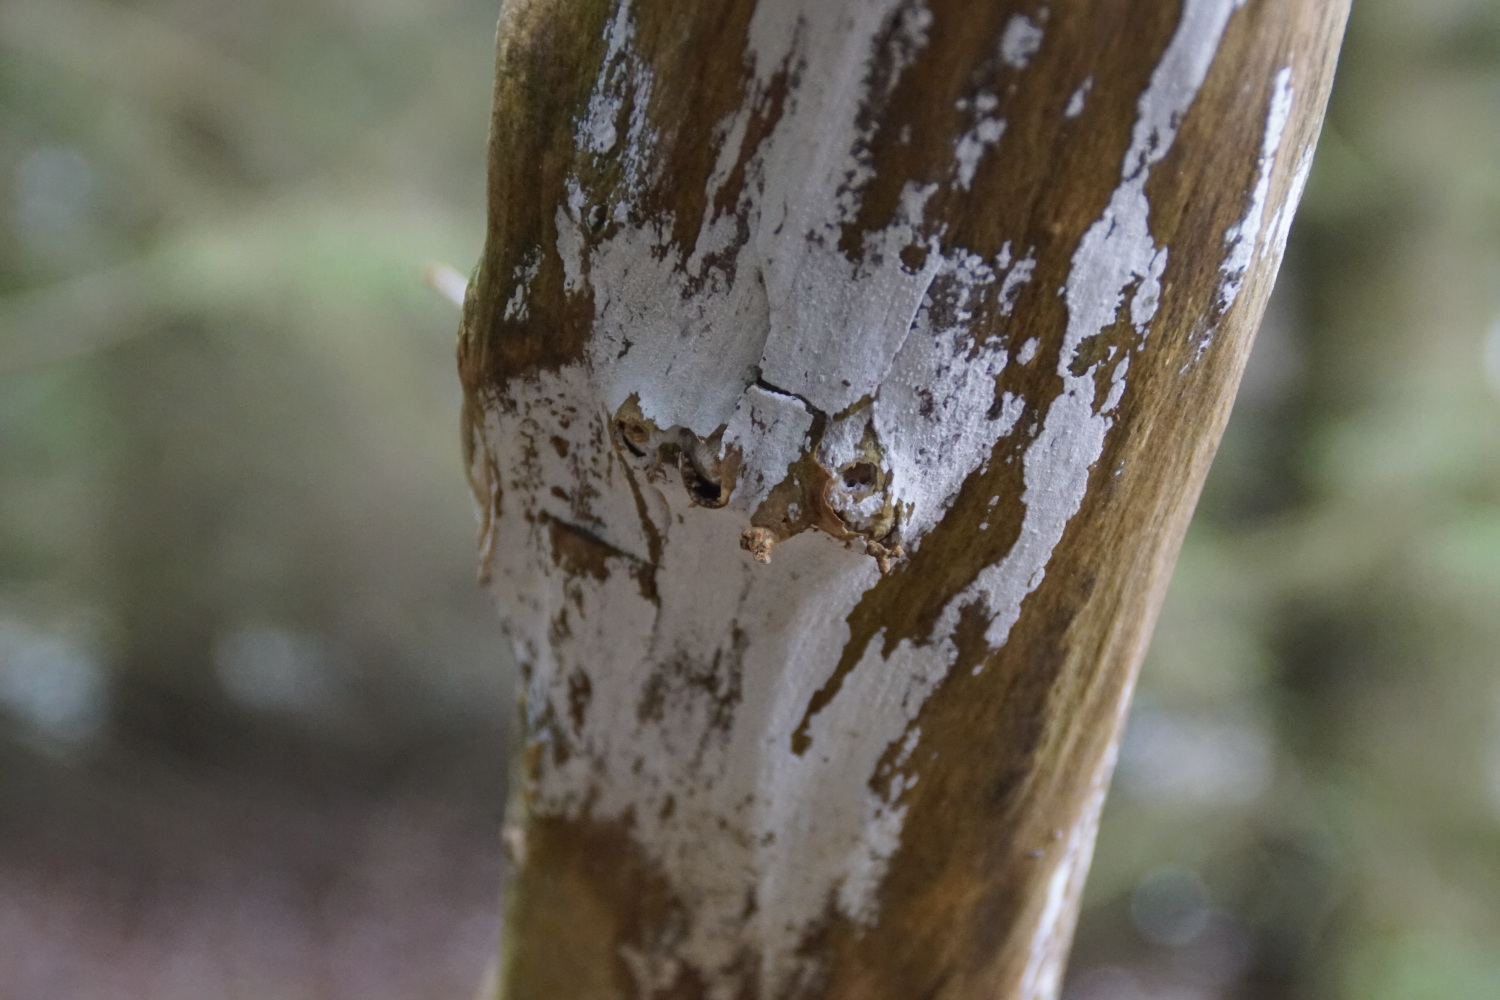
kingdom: Fungi
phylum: Basidiomycota
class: Agaricomycetes
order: Corticiales
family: Corticiaceae
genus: Lyomyces
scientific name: Lyomyces sambuci
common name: almindelig hyldehinde
